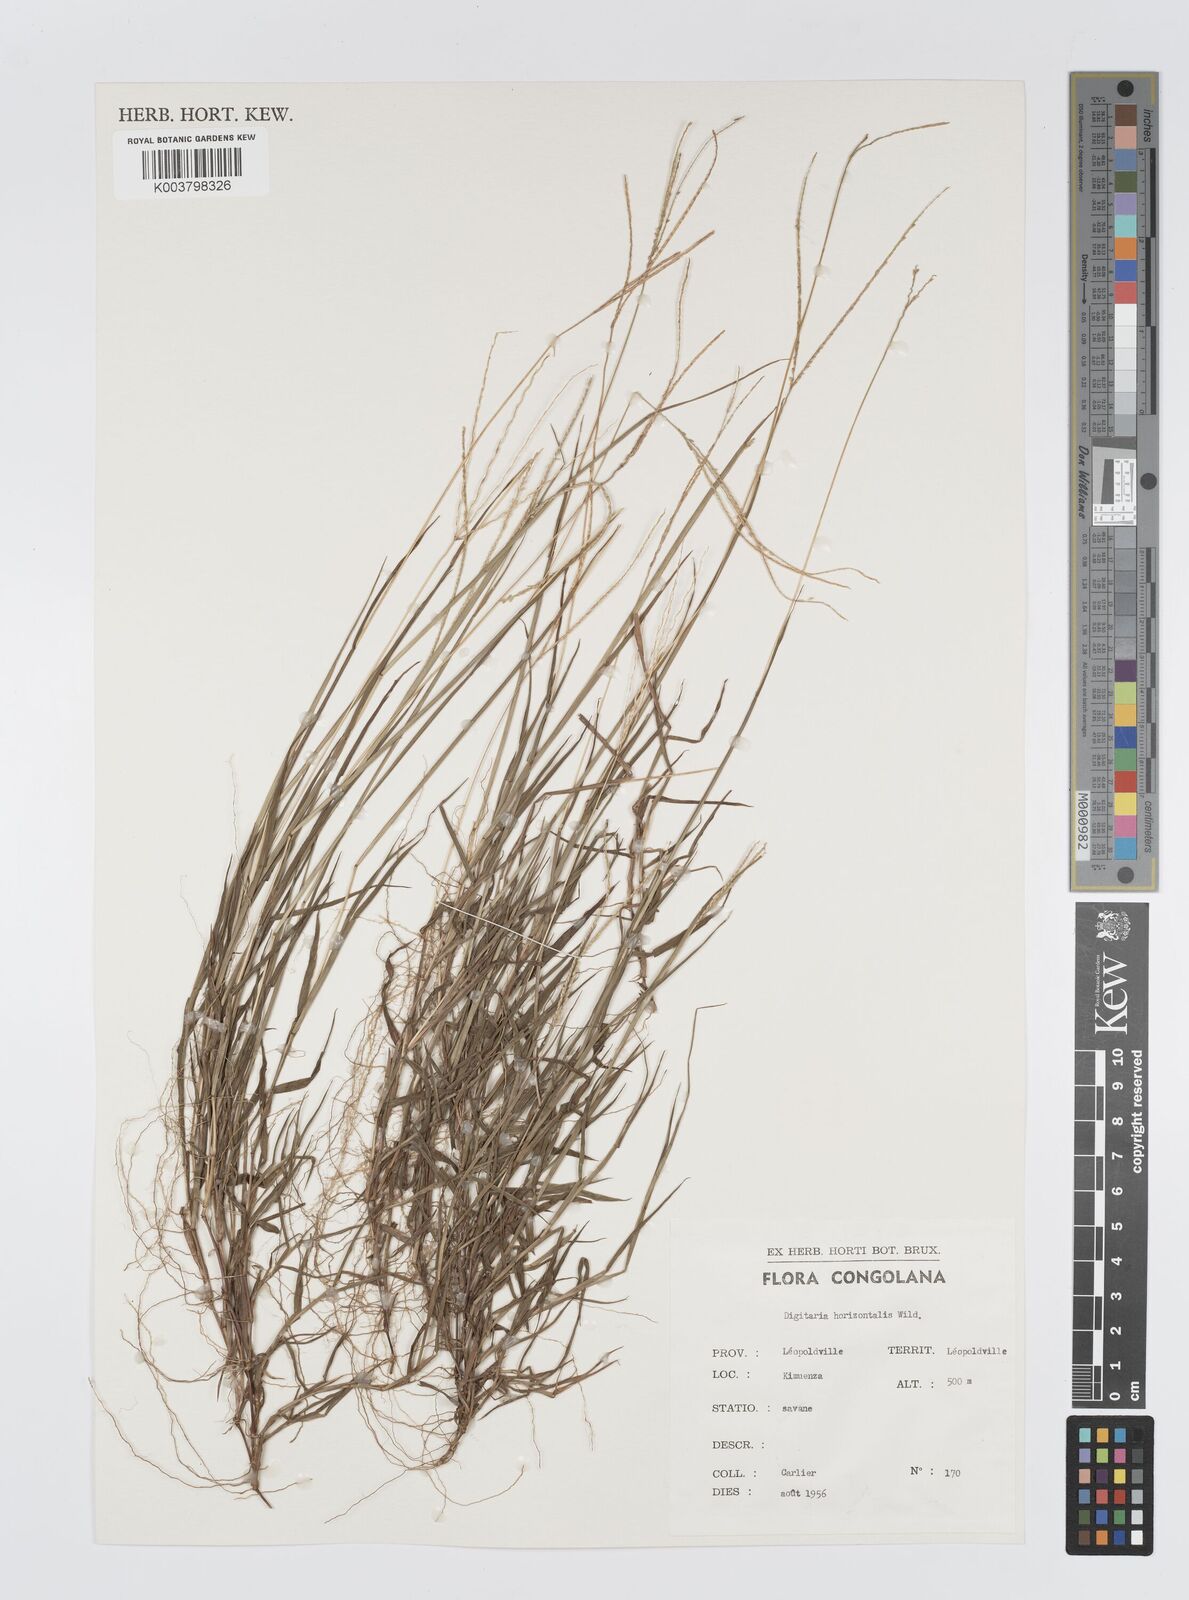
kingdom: Plantae
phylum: Tracheophyta
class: Liliopsida
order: Poales
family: Poaceae
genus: Digitaria
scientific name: Digitaria thouarsiana
